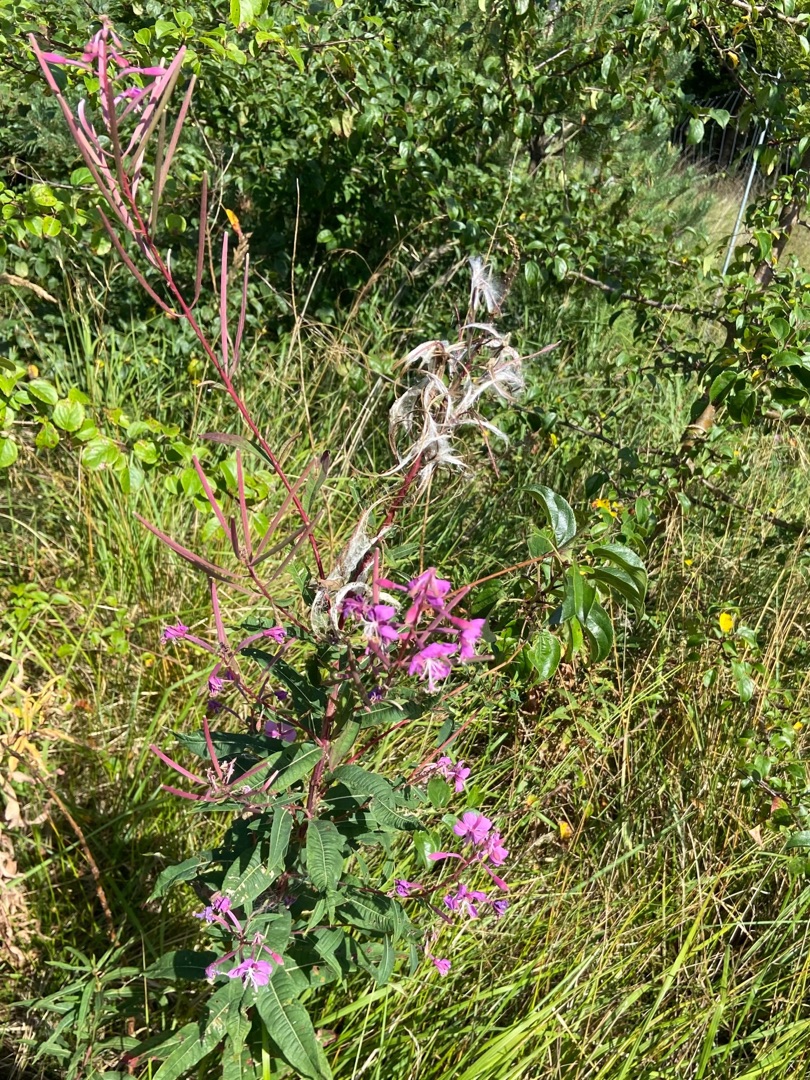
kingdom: Plantae
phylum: Tracheophyta
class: Magnoliopsida
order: Myrtales
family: Onagraceae
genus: Chamaenerion
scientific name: Chamaenerion angustifolium
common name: Gederams
